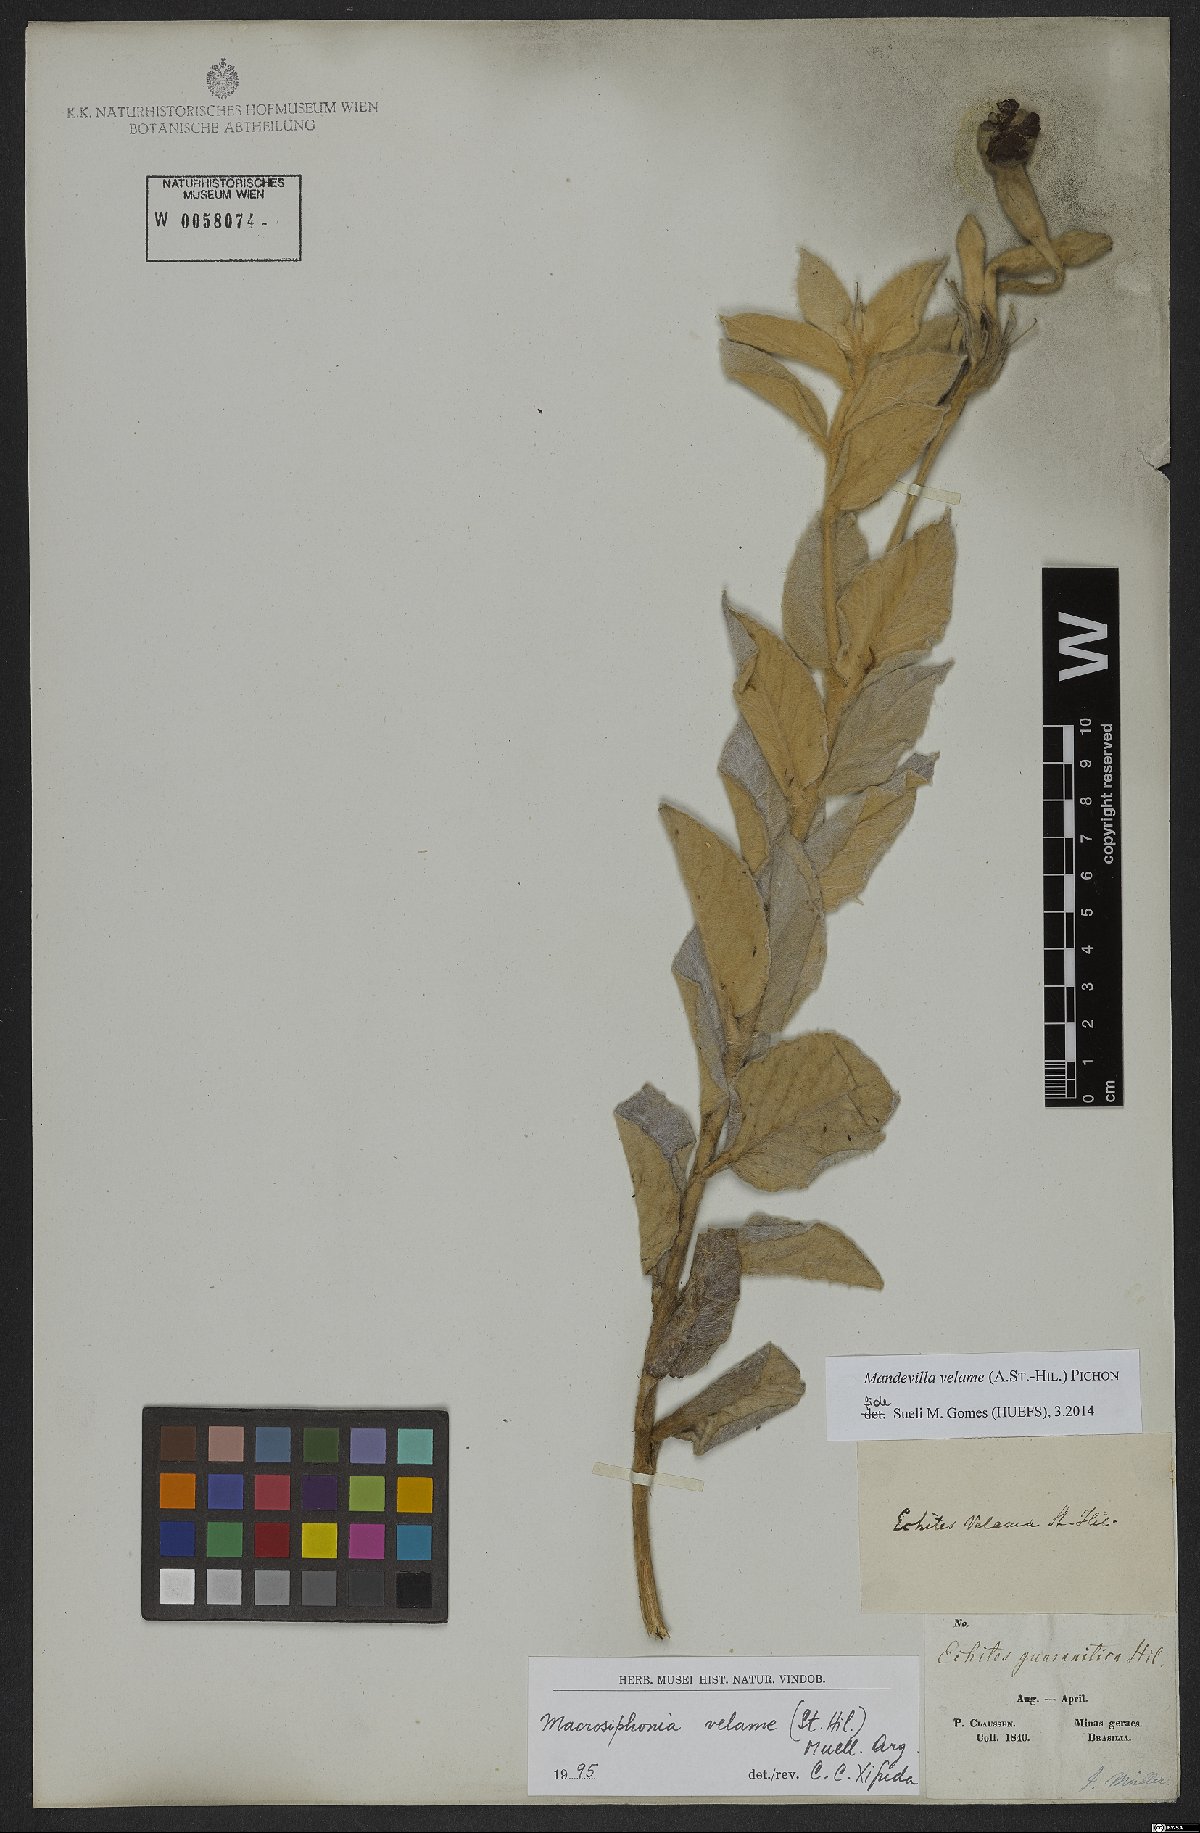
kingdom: Plantae
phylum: Tracheophyta
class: Magnoliopsida
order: Gentianales
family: Apocynaceae
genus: Mandevilla
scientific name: Mandevilla velame
